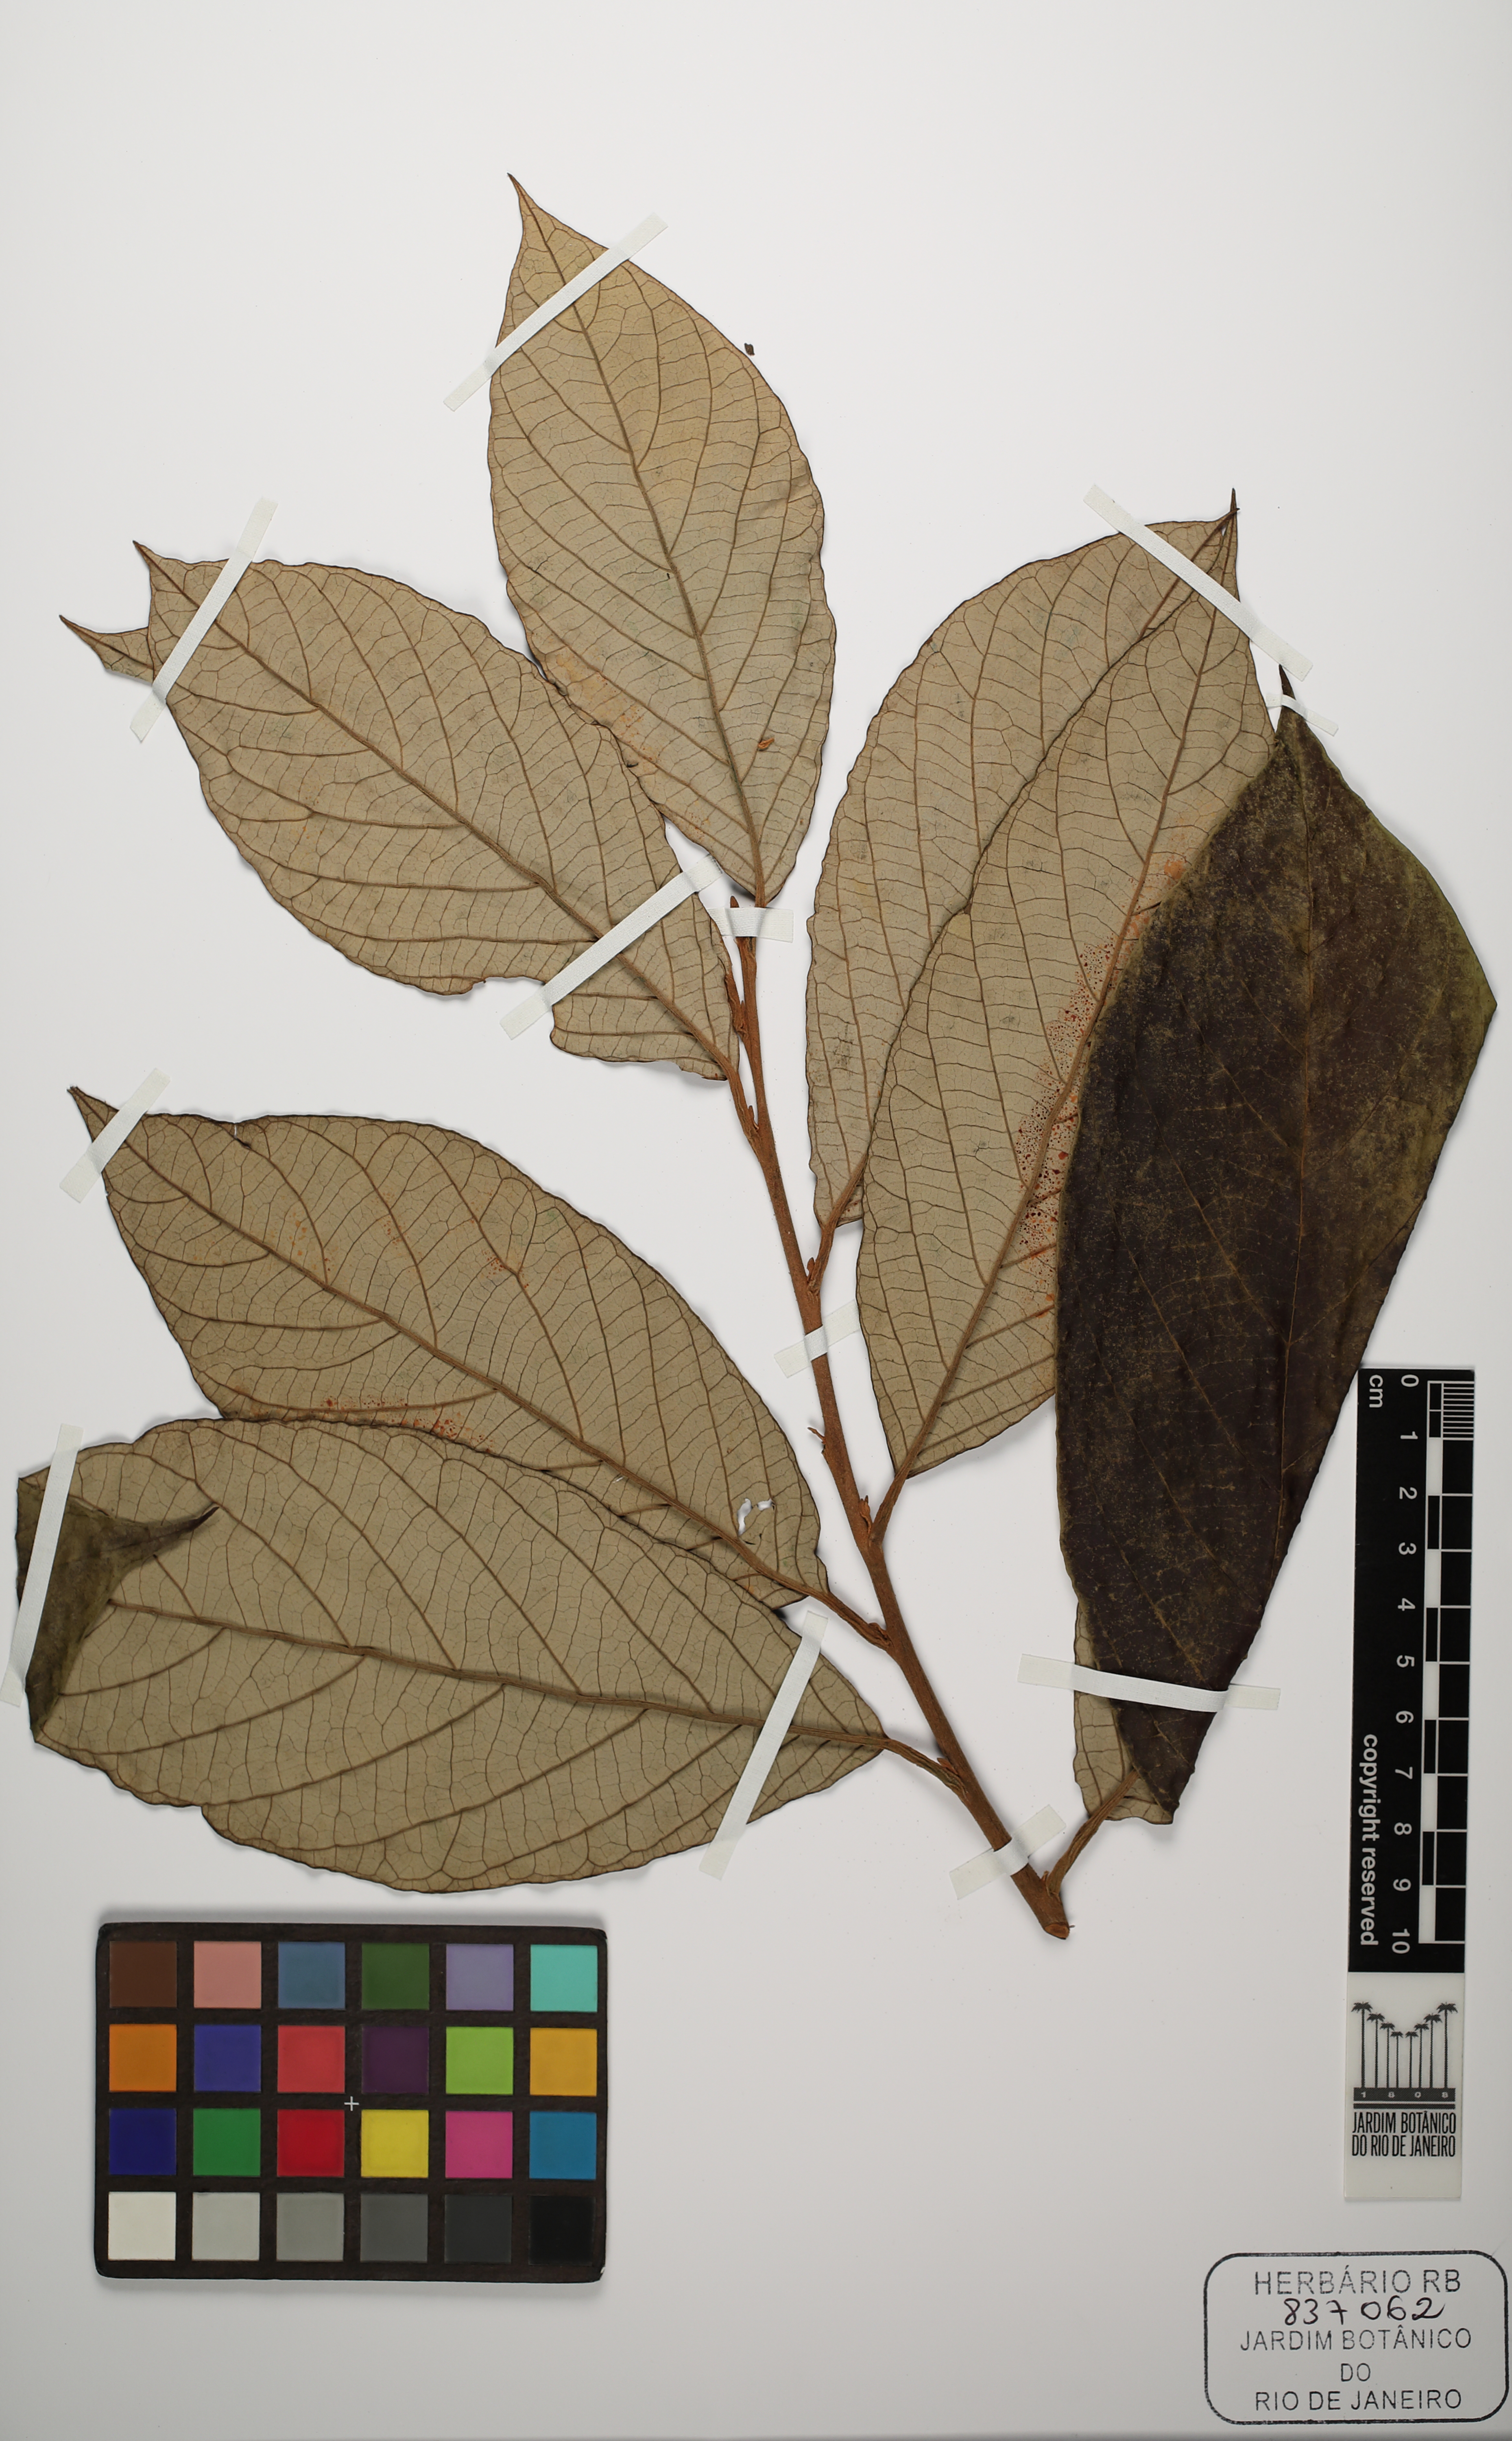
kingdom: Plantae
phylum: Tracheophyta
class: Magnoliopsida
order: Ericales
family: Styracaceae
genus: Styrax
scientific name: Styrax guyanensis
